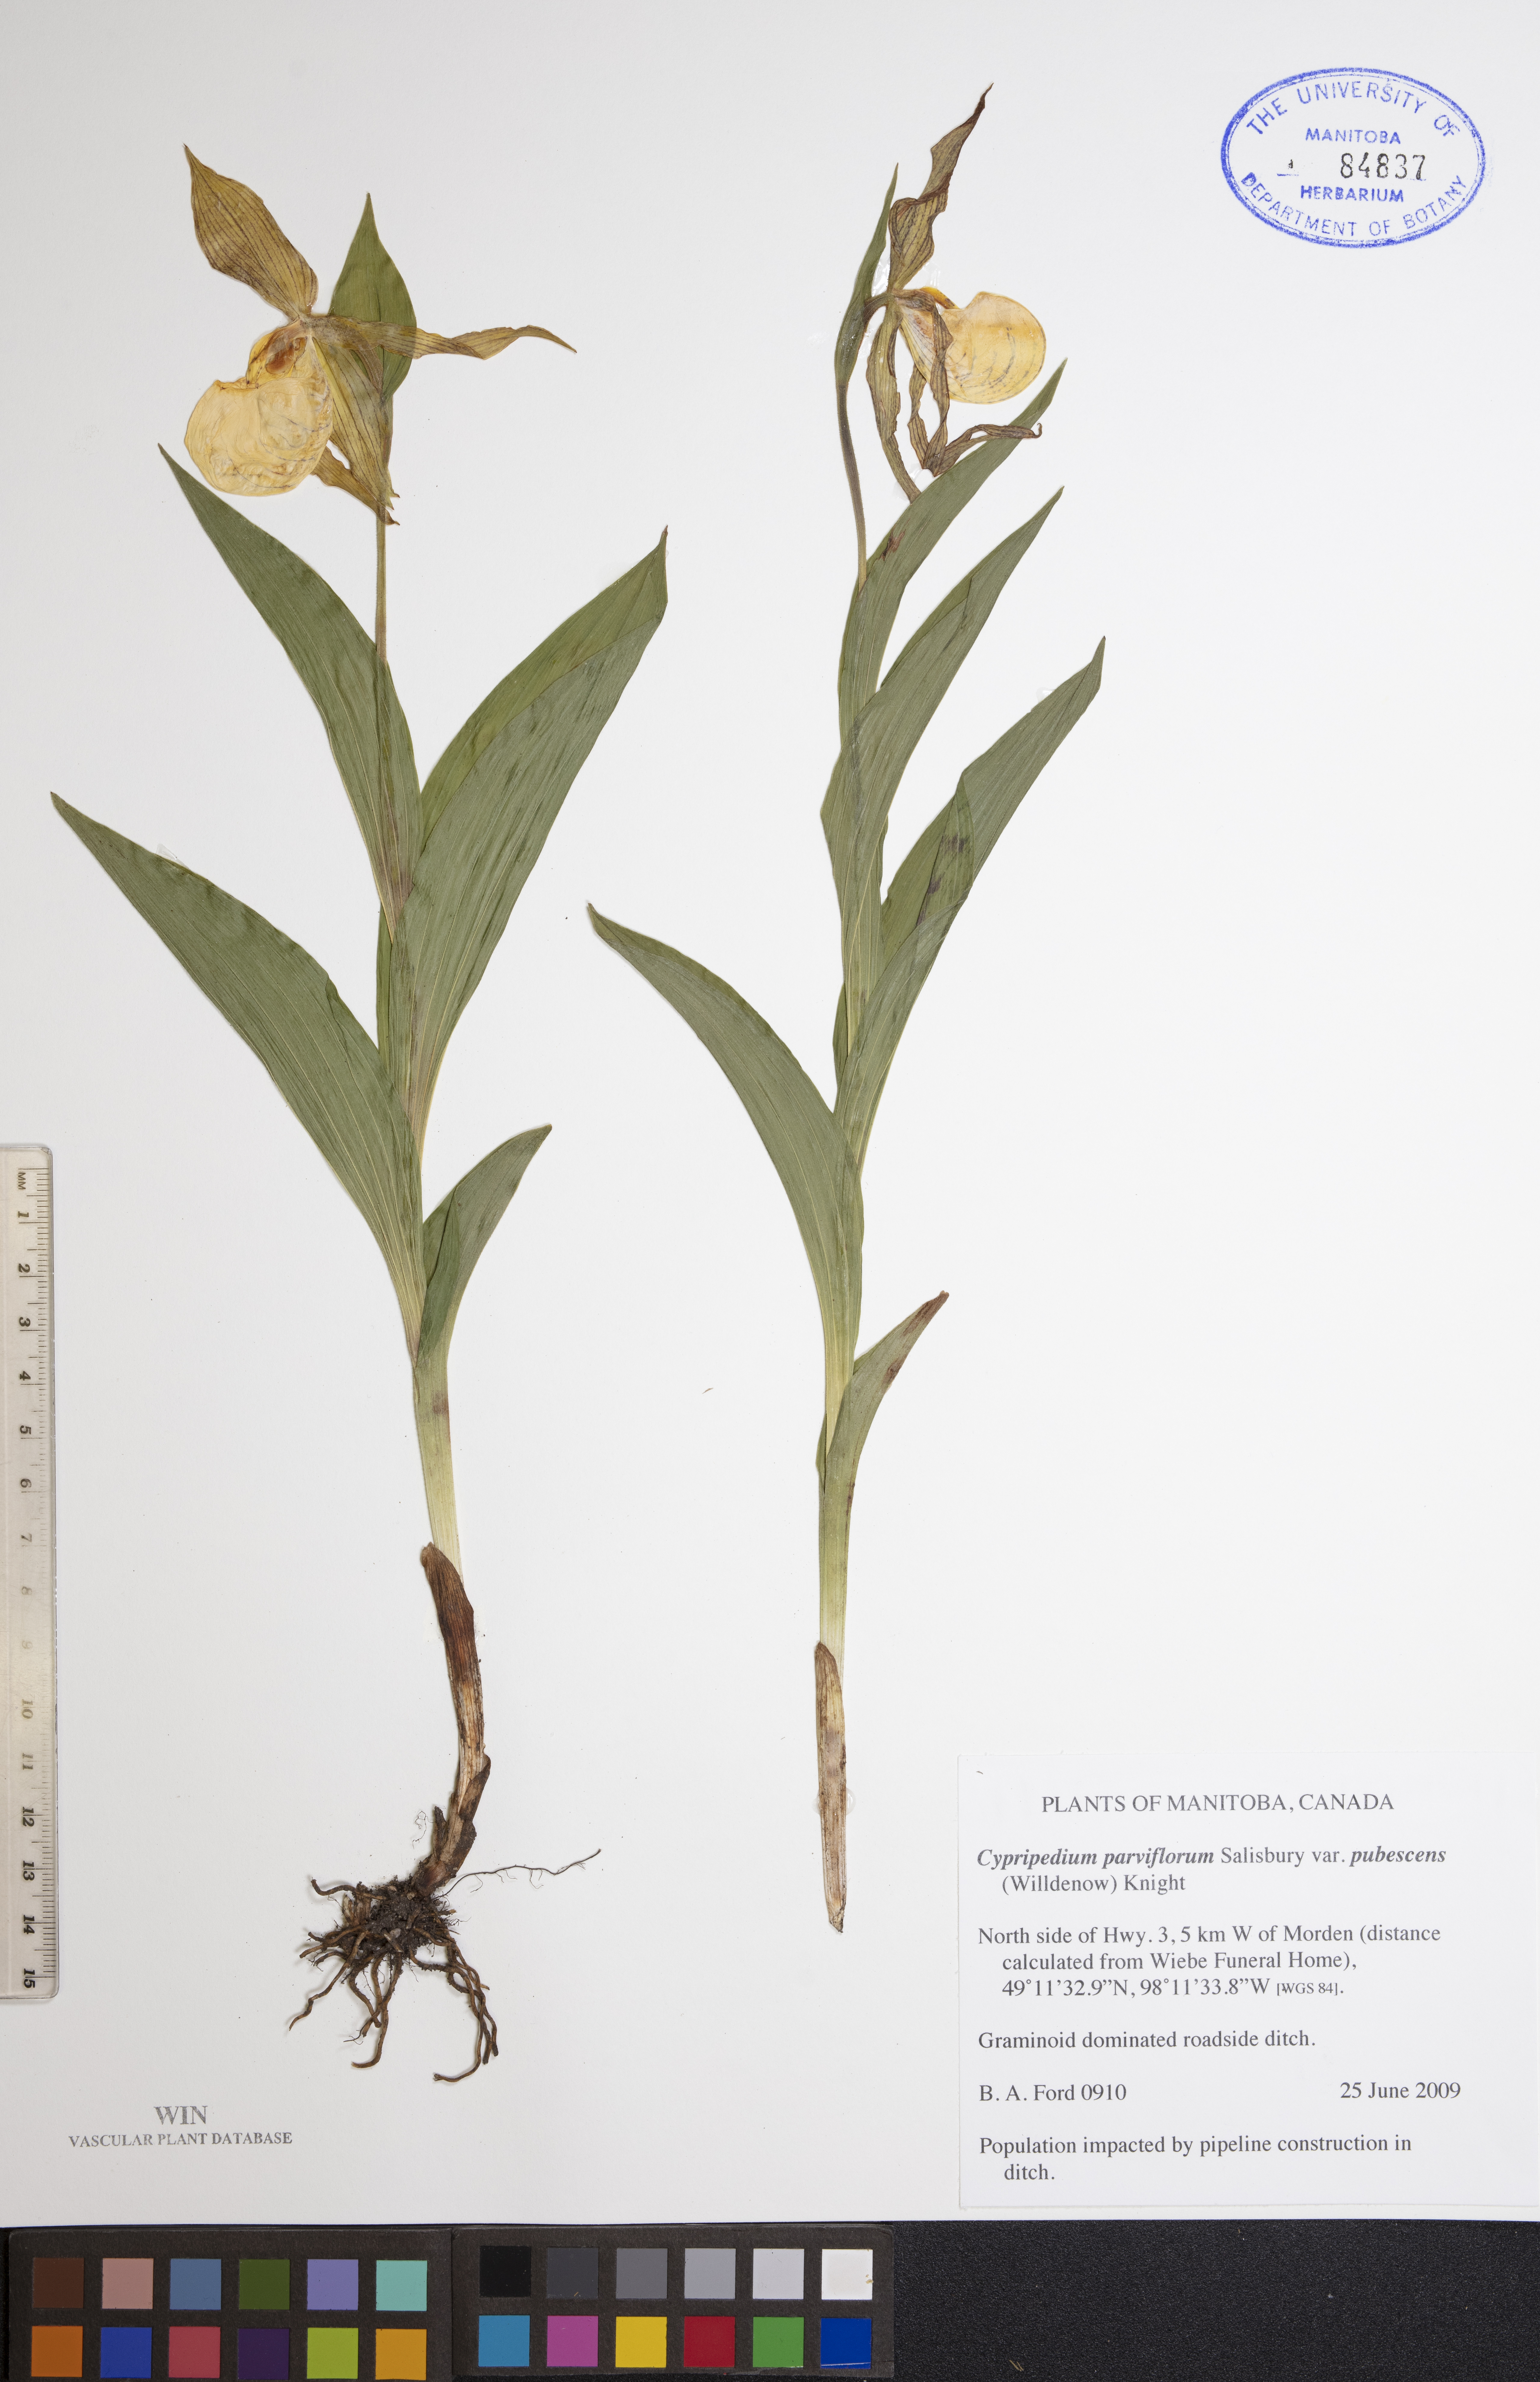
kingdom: Plantae
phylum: Tracheophyta
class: Liliopsida
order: Asparagales
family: Orchidaceae
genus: Cypripedium
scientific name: Cypripedium parviflorum
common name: American yellow lady's-slipper
